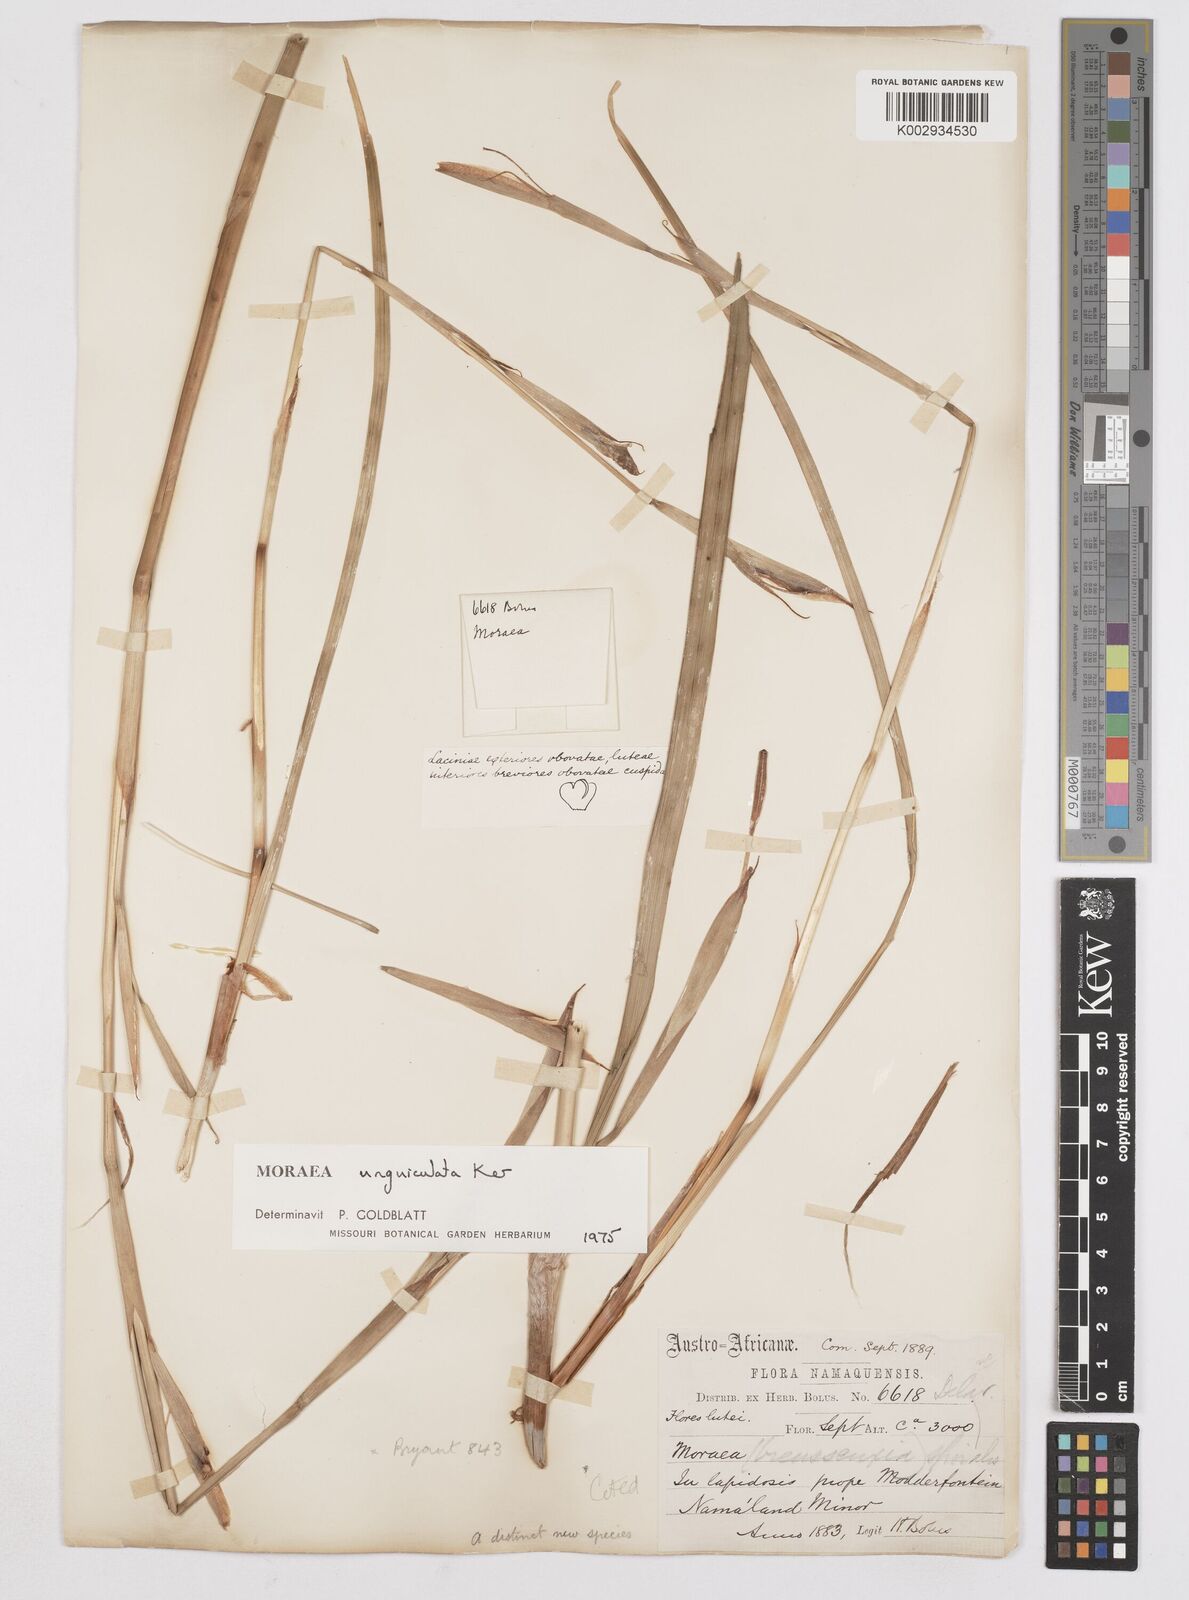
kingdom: Plantae
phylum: Tracheophyta
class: Liliopsida
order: Asparagales
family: Iridaceae
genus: Moraea
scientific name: Moraea unguiculata
